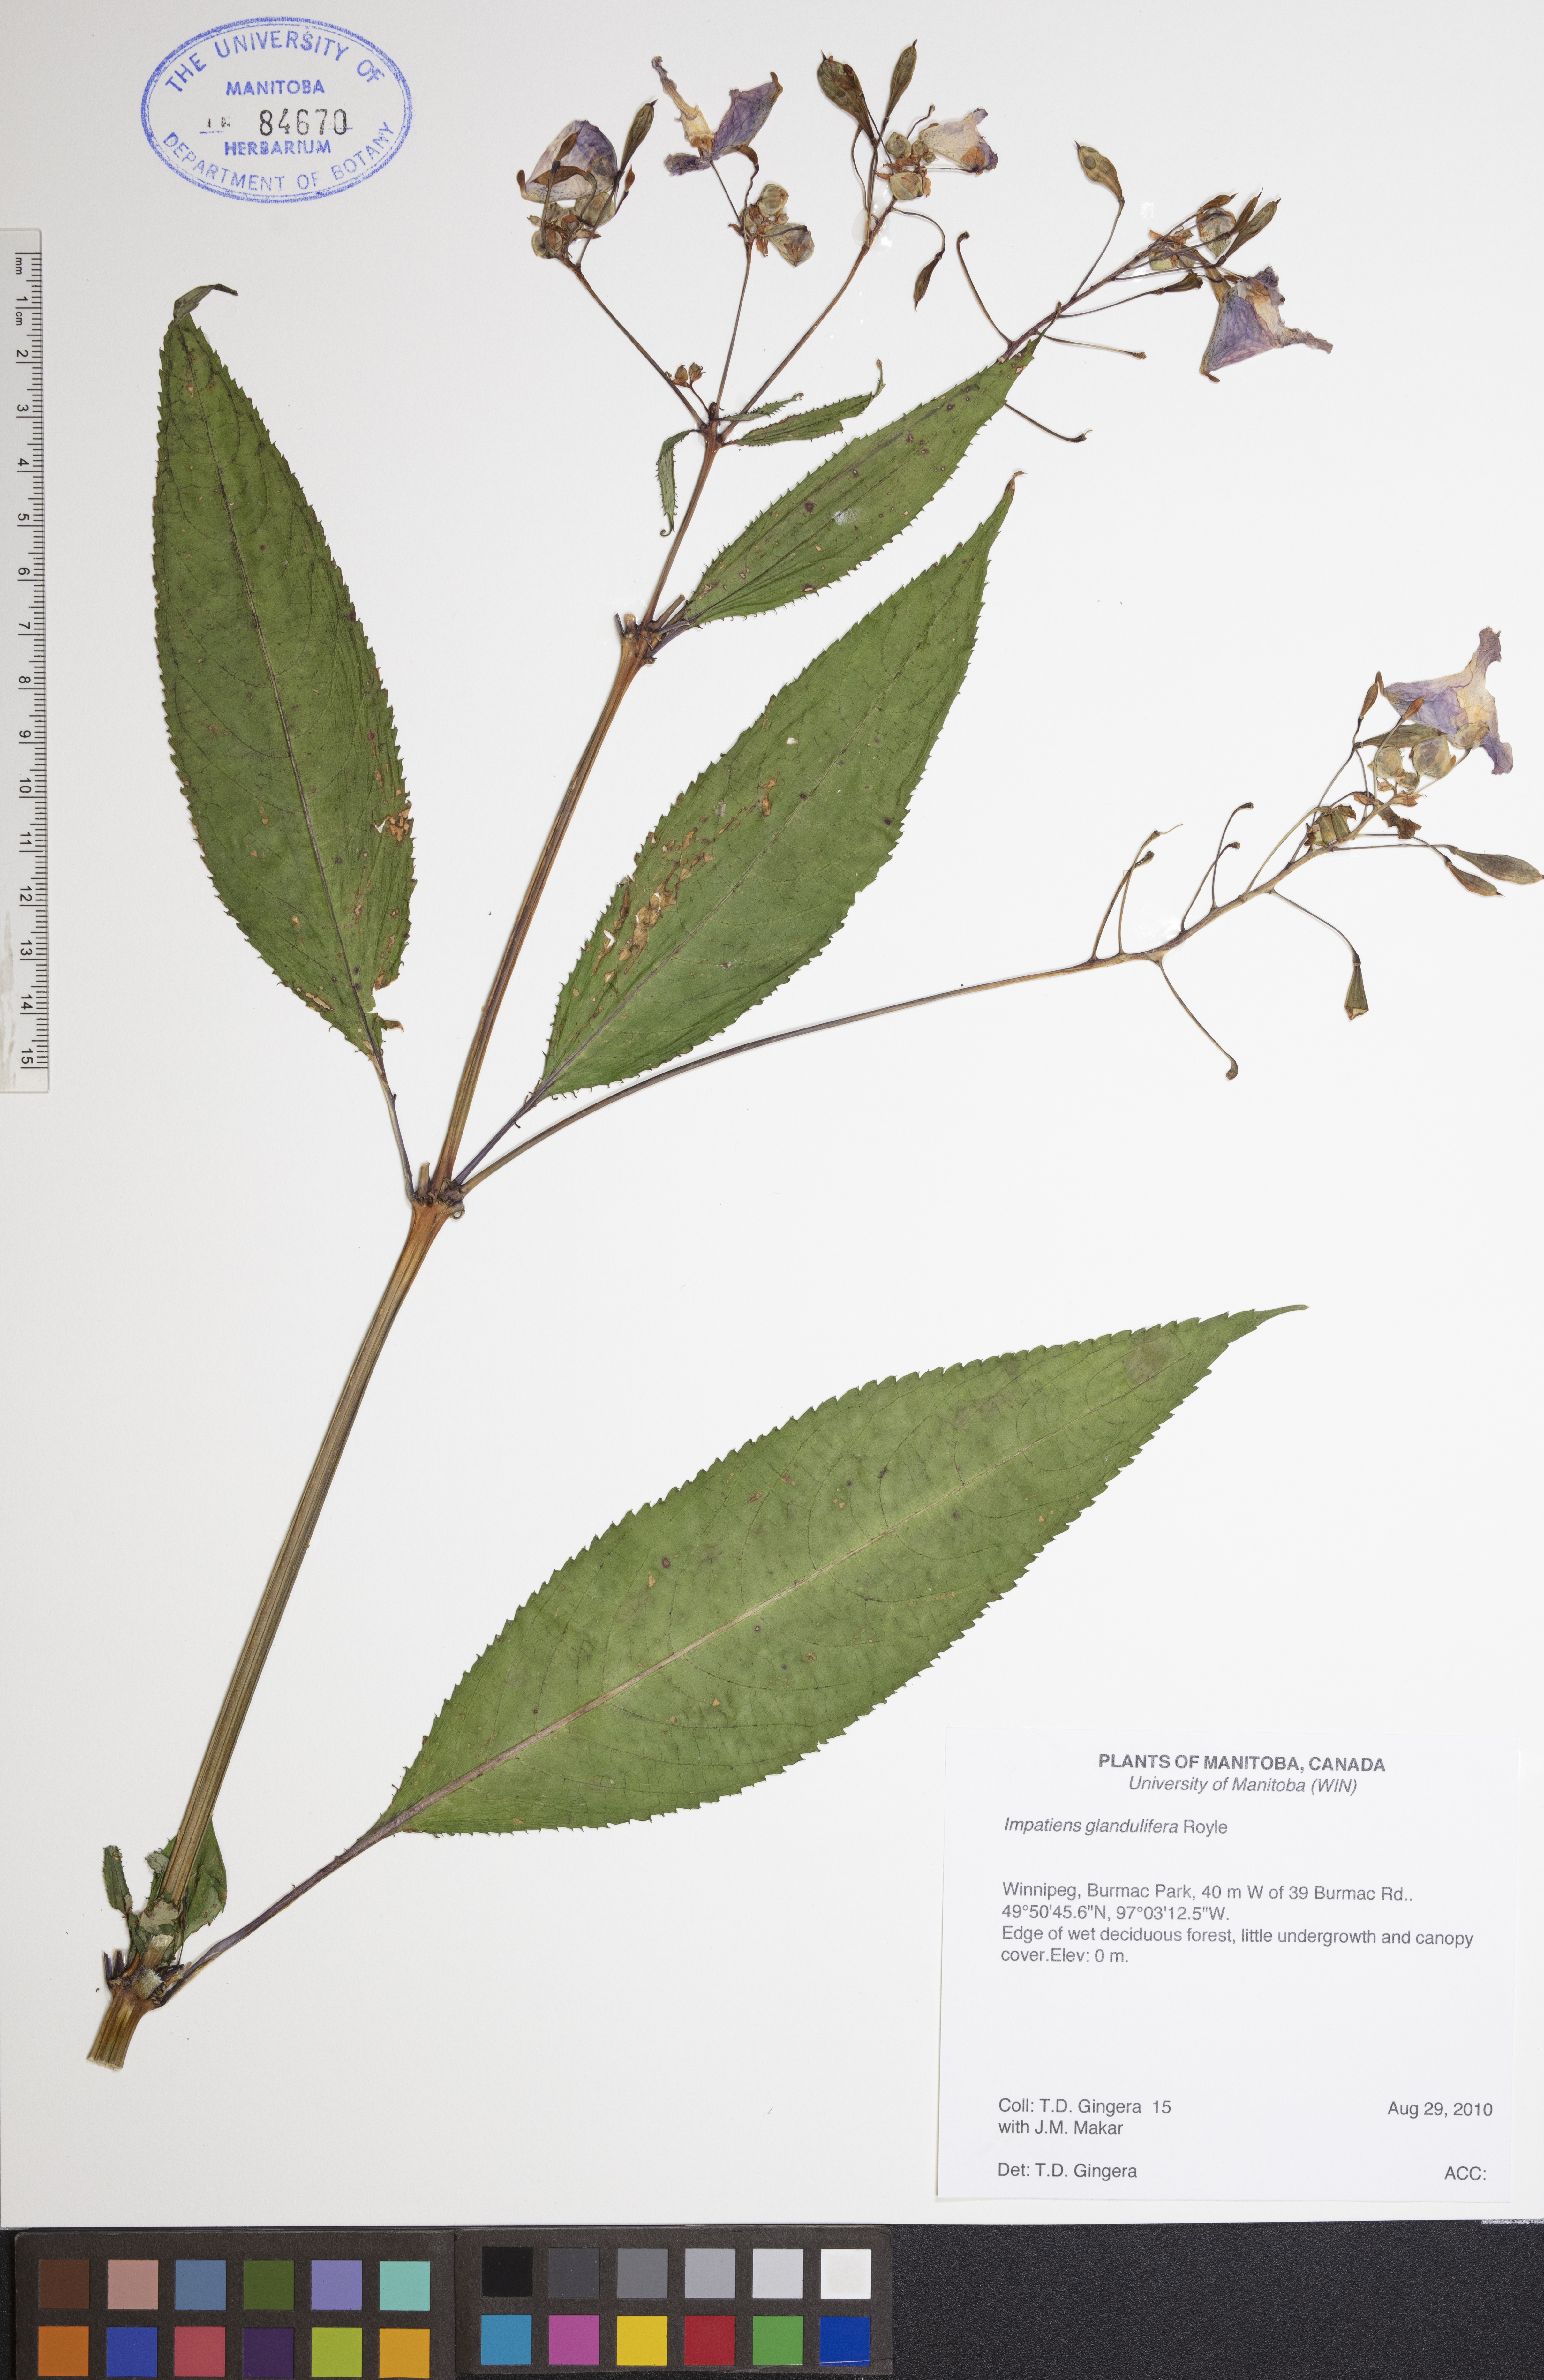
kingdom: Plantae
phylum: Tracheophyta
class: Magnoliopsida
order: Ericales
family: Balsaminaceae
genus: Impatiens
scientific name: Impatiens glandulifera
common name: Himalayan balsam
